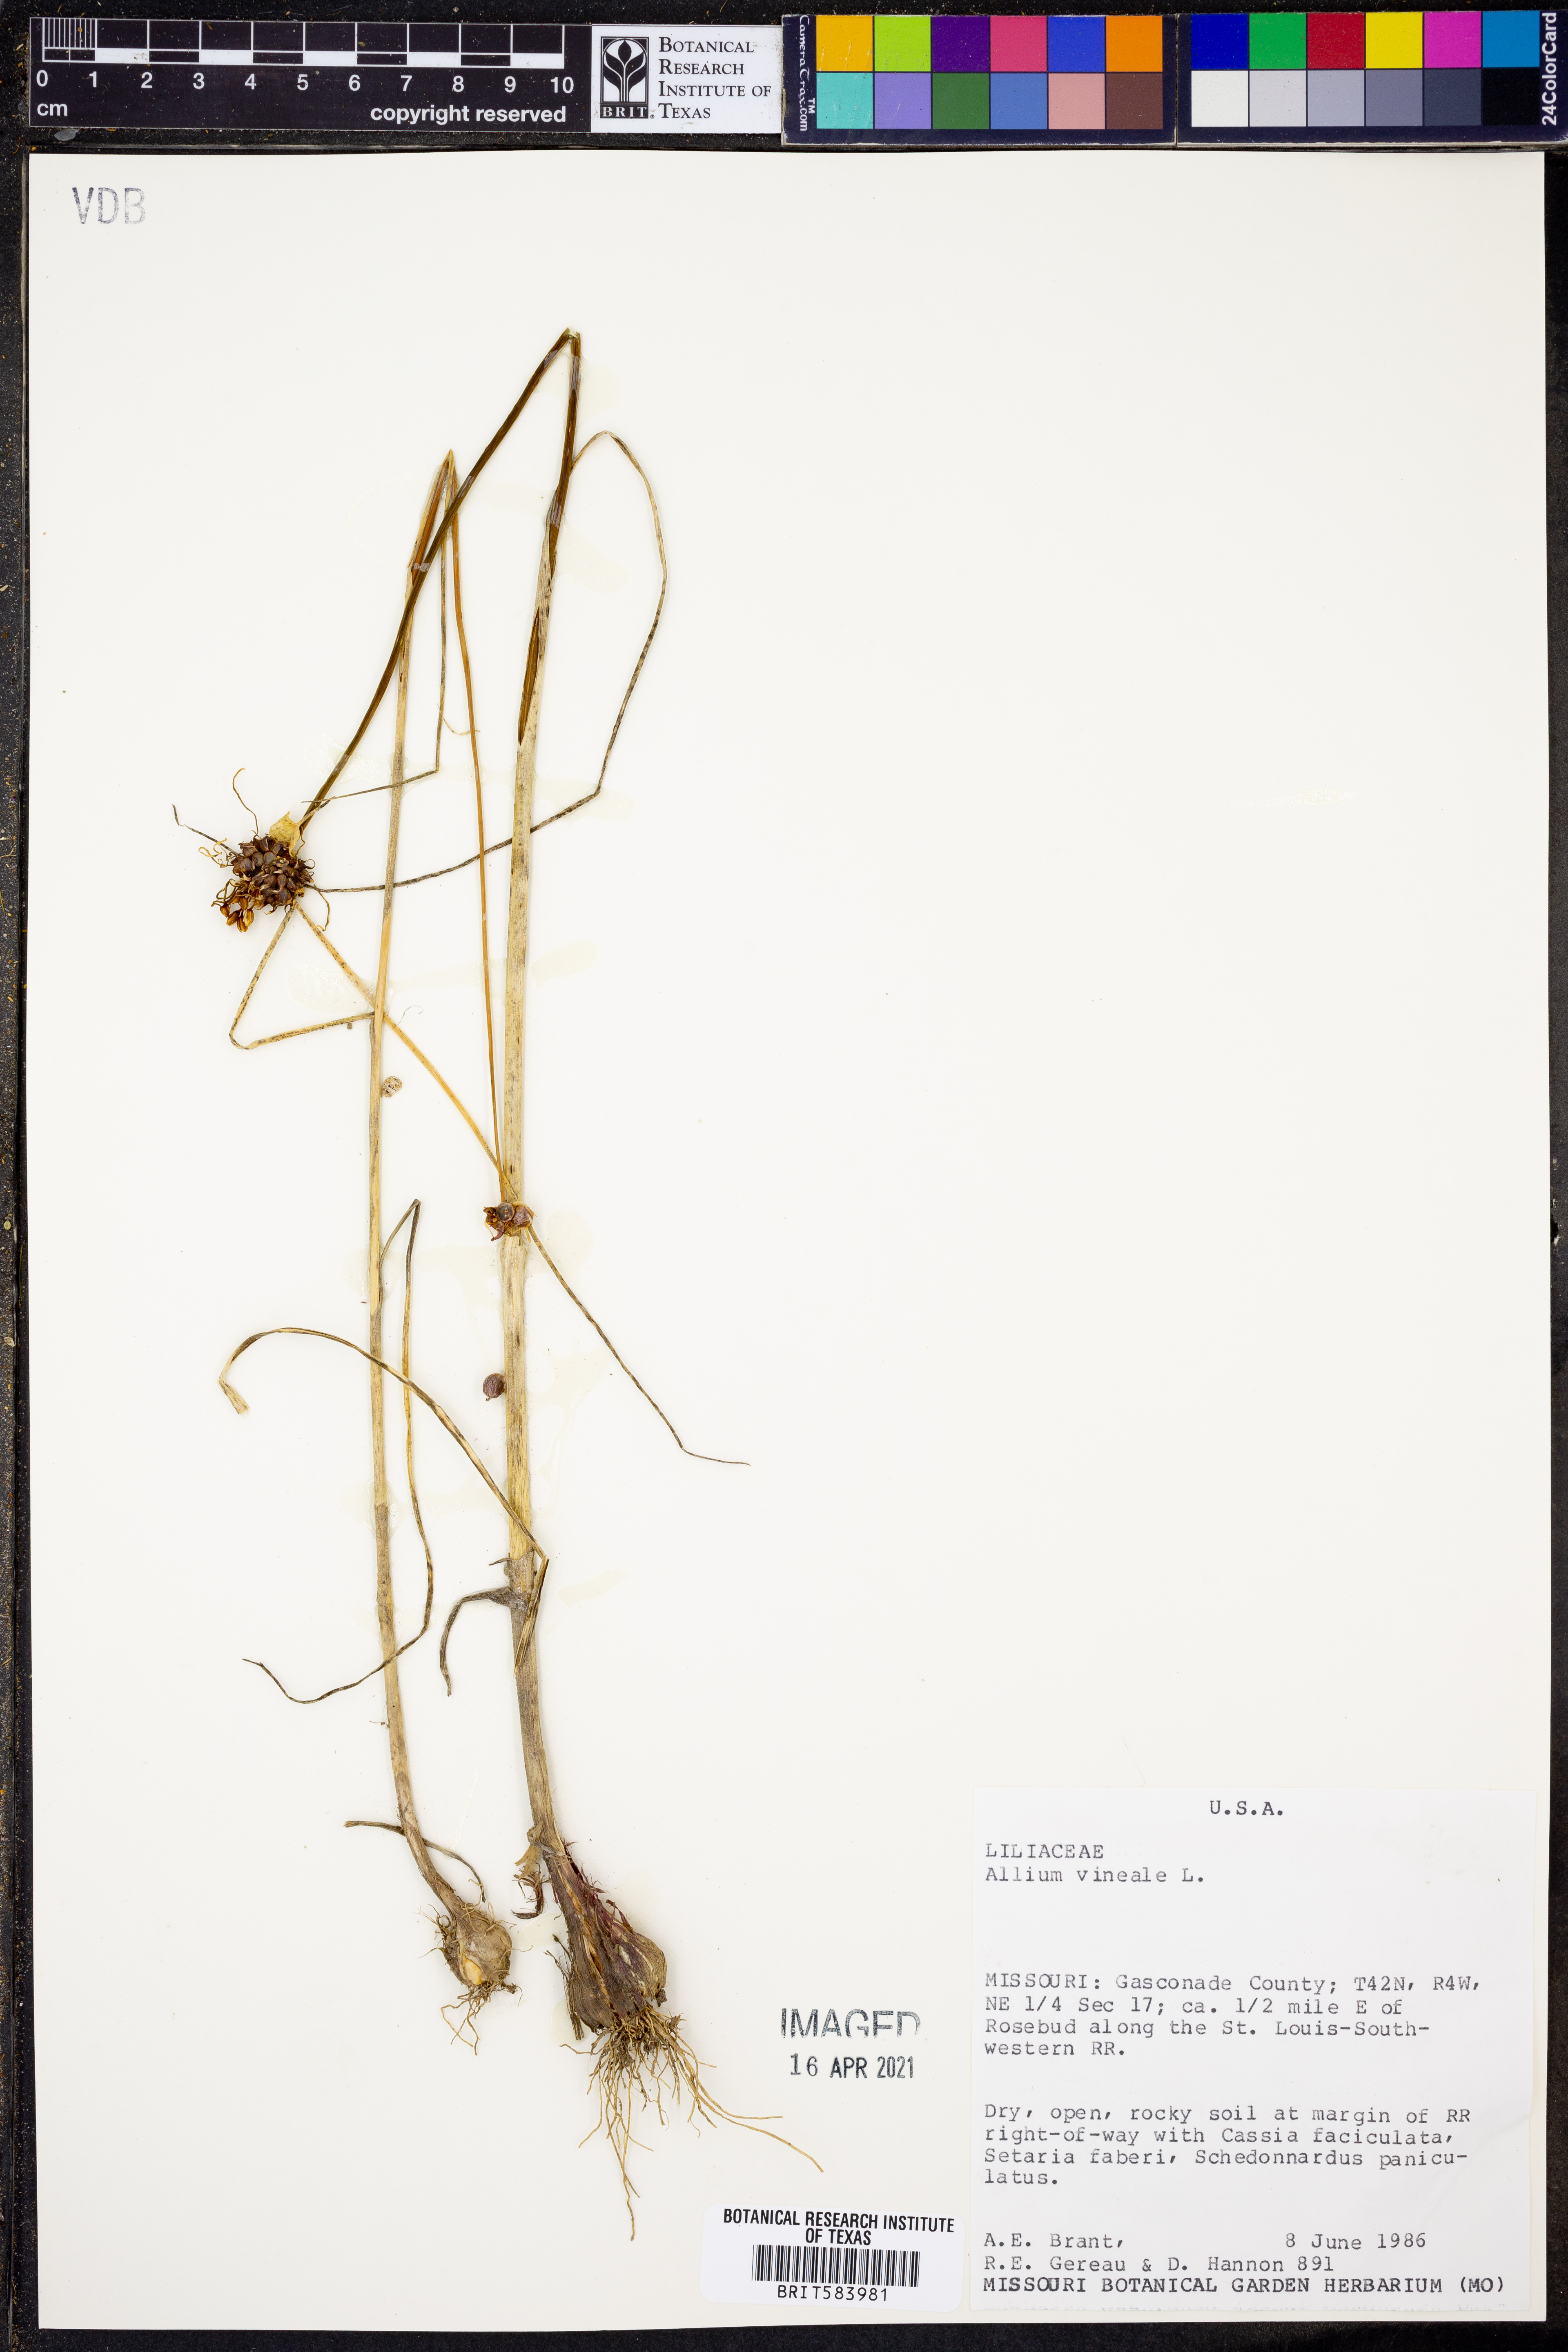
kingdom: Plantae
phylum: Tracheophyta
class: Liliopsida
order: Asparagales
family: Amaryllidaceae
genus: Allium
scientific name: Allium vineale
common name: Crow garlic
